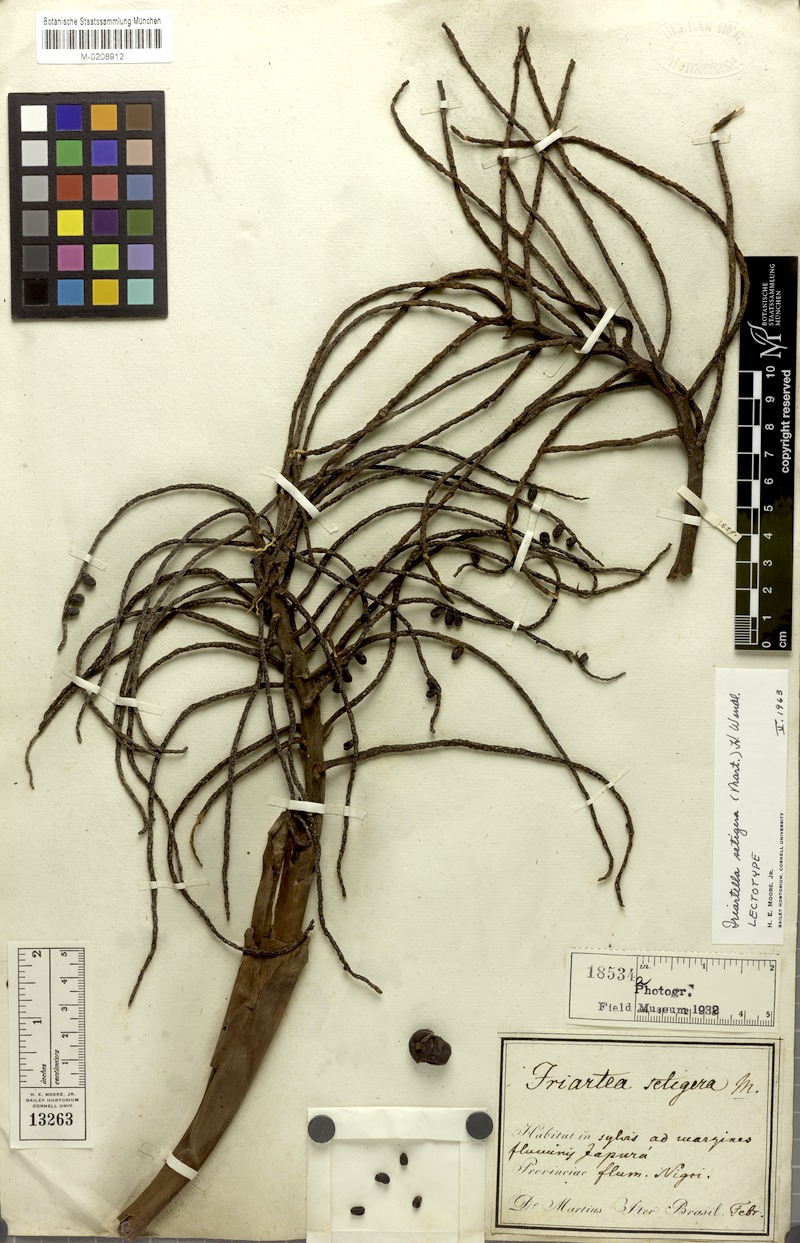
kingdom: Plantae
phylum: Tracheophyta
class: Liliopsida
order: Arecales
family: Arecaceae
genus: Iriartella
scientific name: Iriartella setigera
